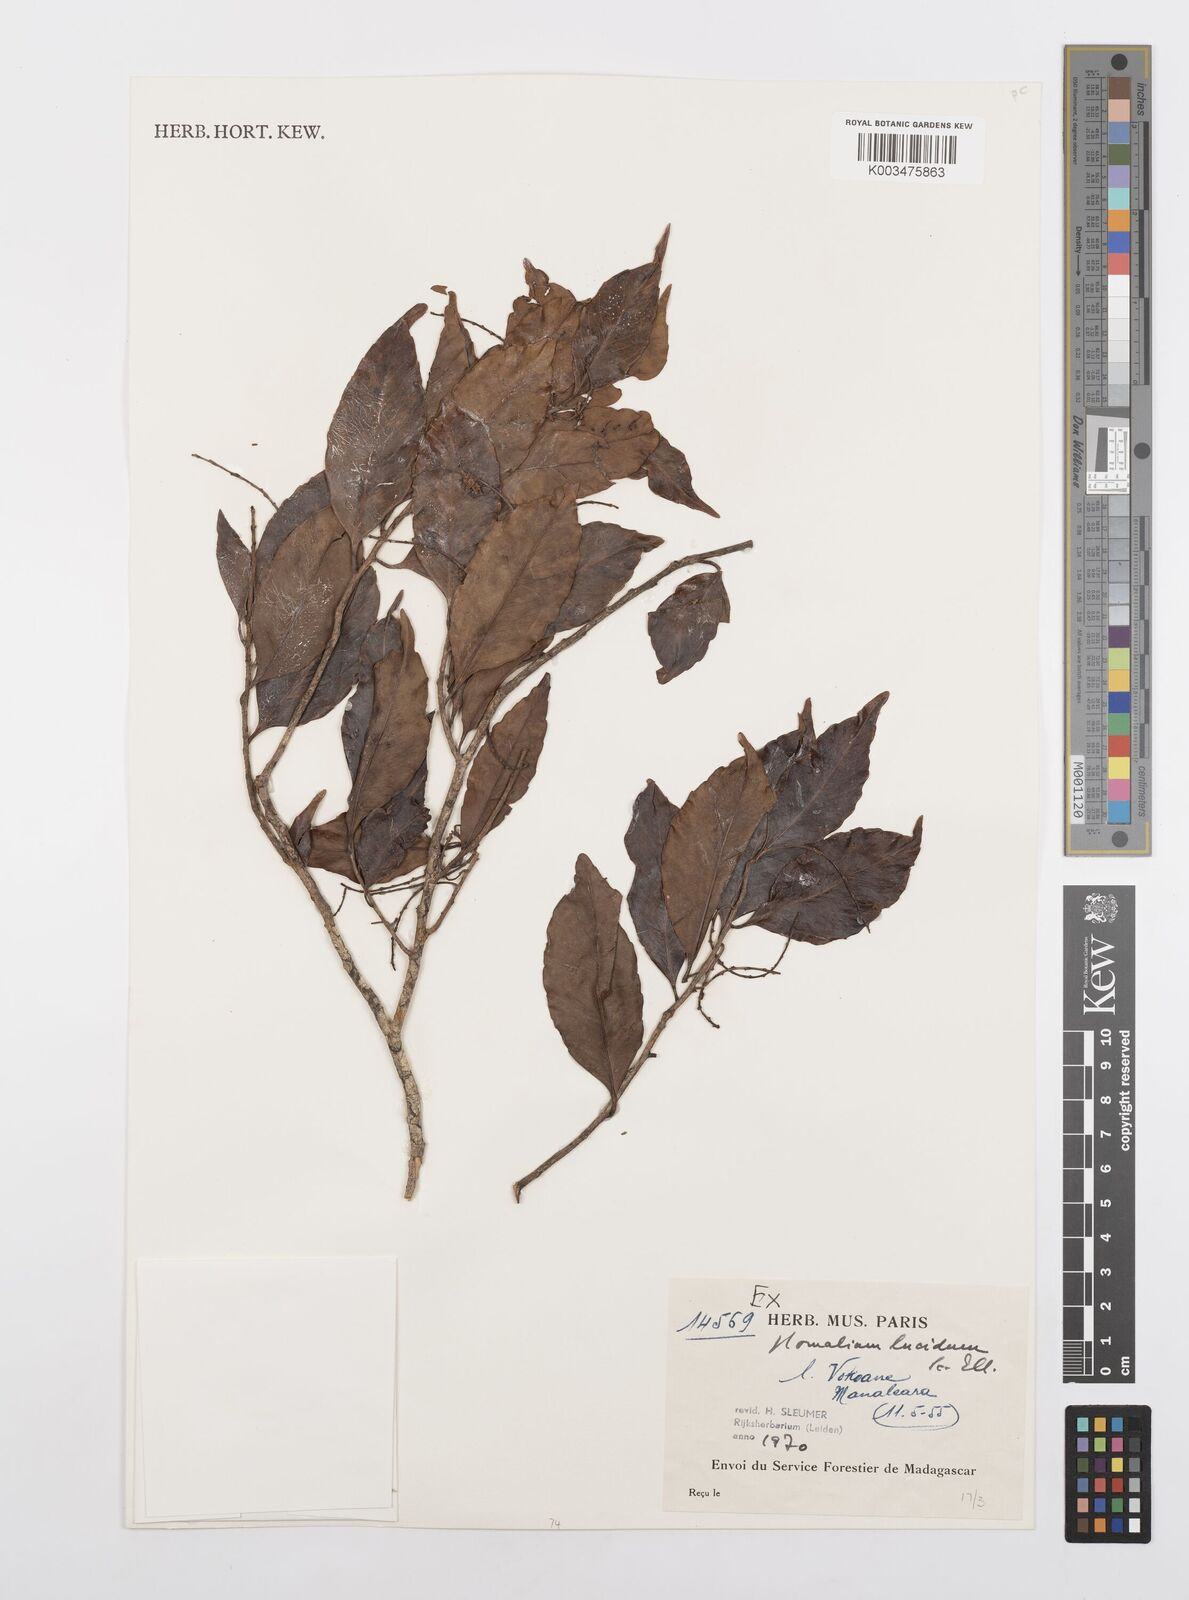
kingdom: Plantae
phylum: Tracheophyta
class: Magnoliopsida
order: Malpighiales
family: Salicaceae
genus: Homalium
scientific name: Homalium lucidum
